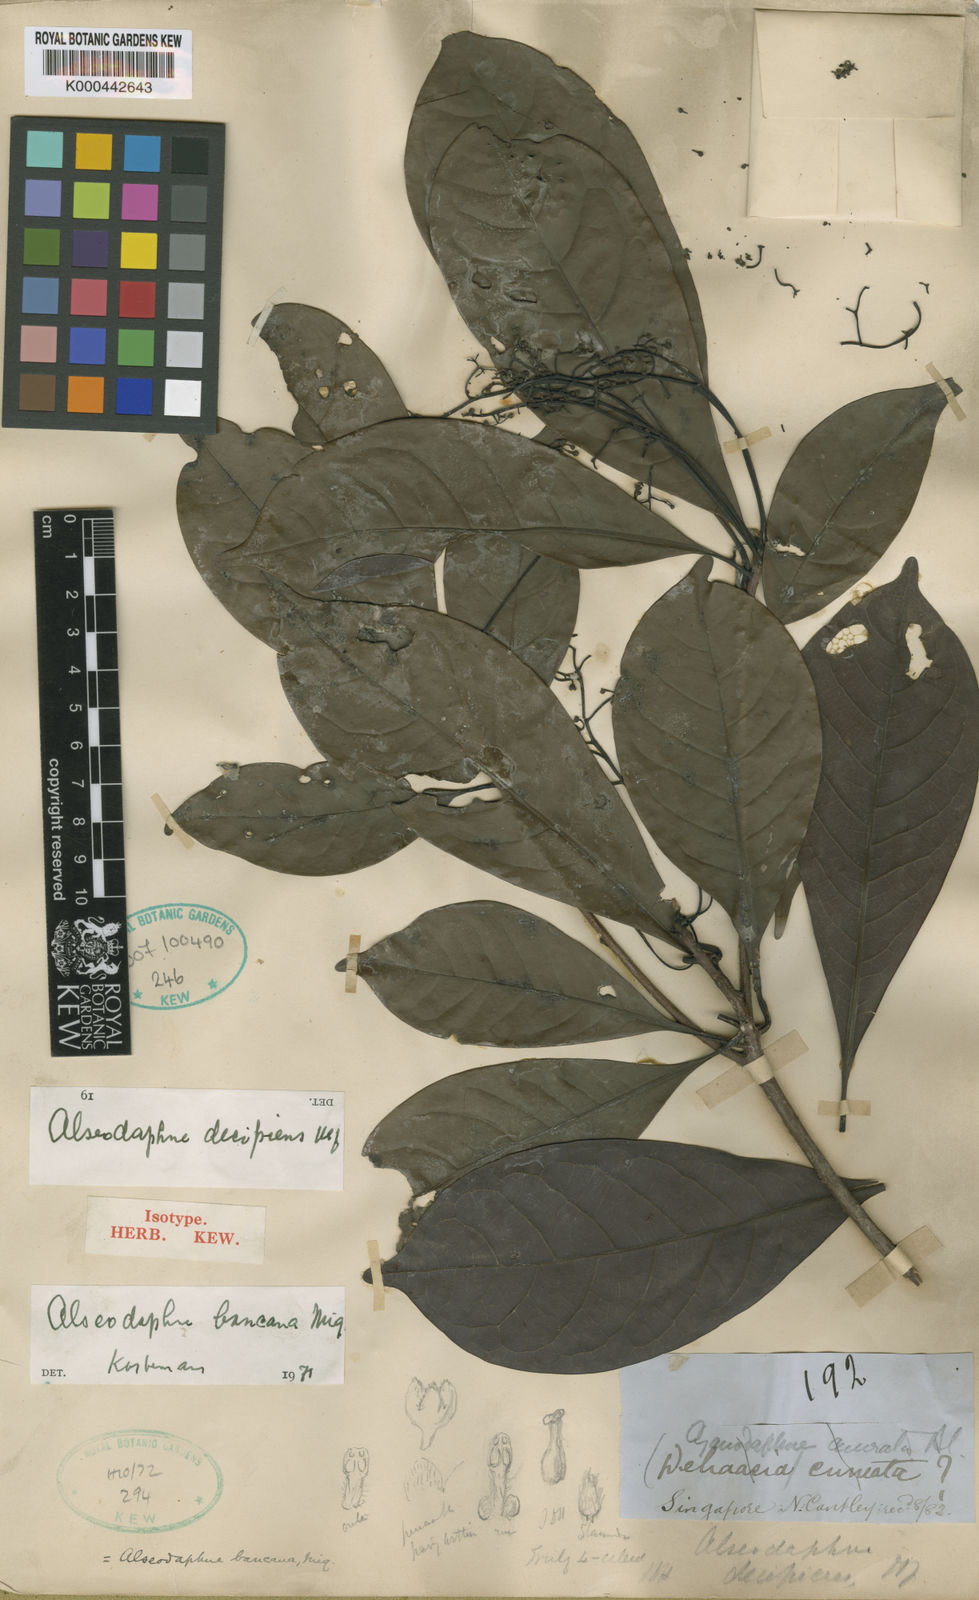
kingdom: Plantae
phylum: Tracheophyta
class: Magnoliopsida
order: Laurales
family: Lauraceae
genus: Alseodaphne
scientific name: Alseodaphne bancana
